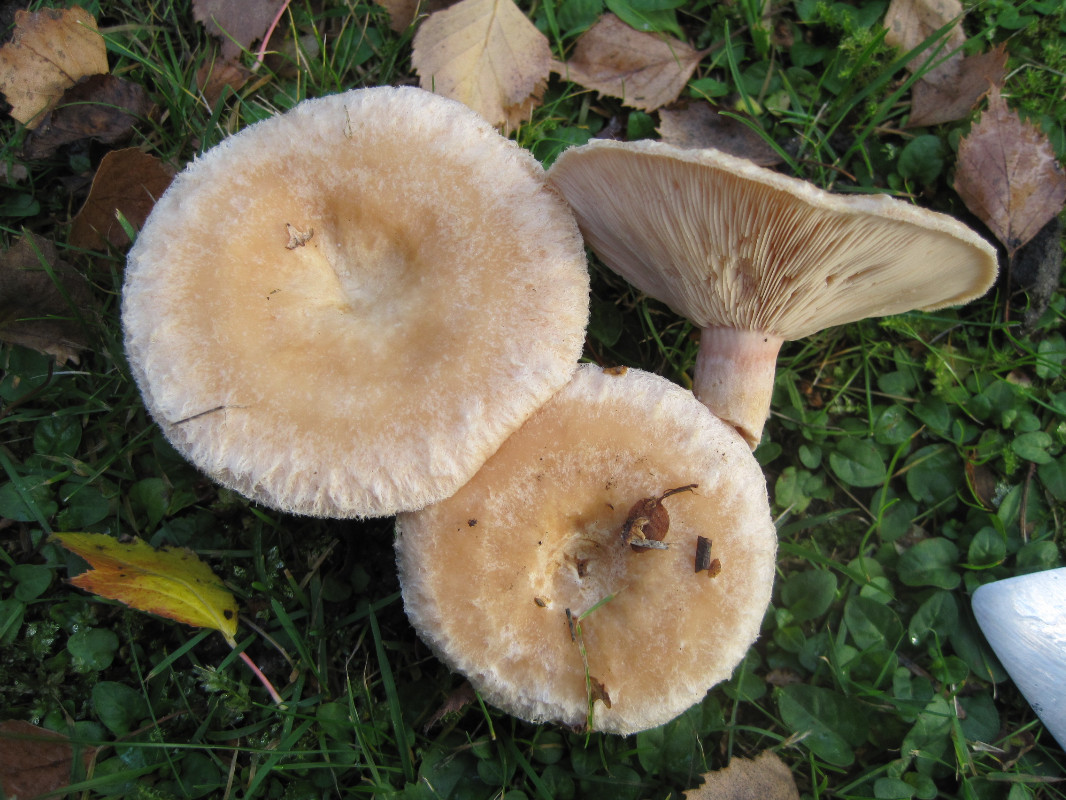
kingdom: Fungi
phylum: Basidiomycota
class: Agaricomycetes
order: Russulales
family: Russulaceae
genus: Lactarius
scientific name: Lactarius pubescens
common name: dunet mælkehat
